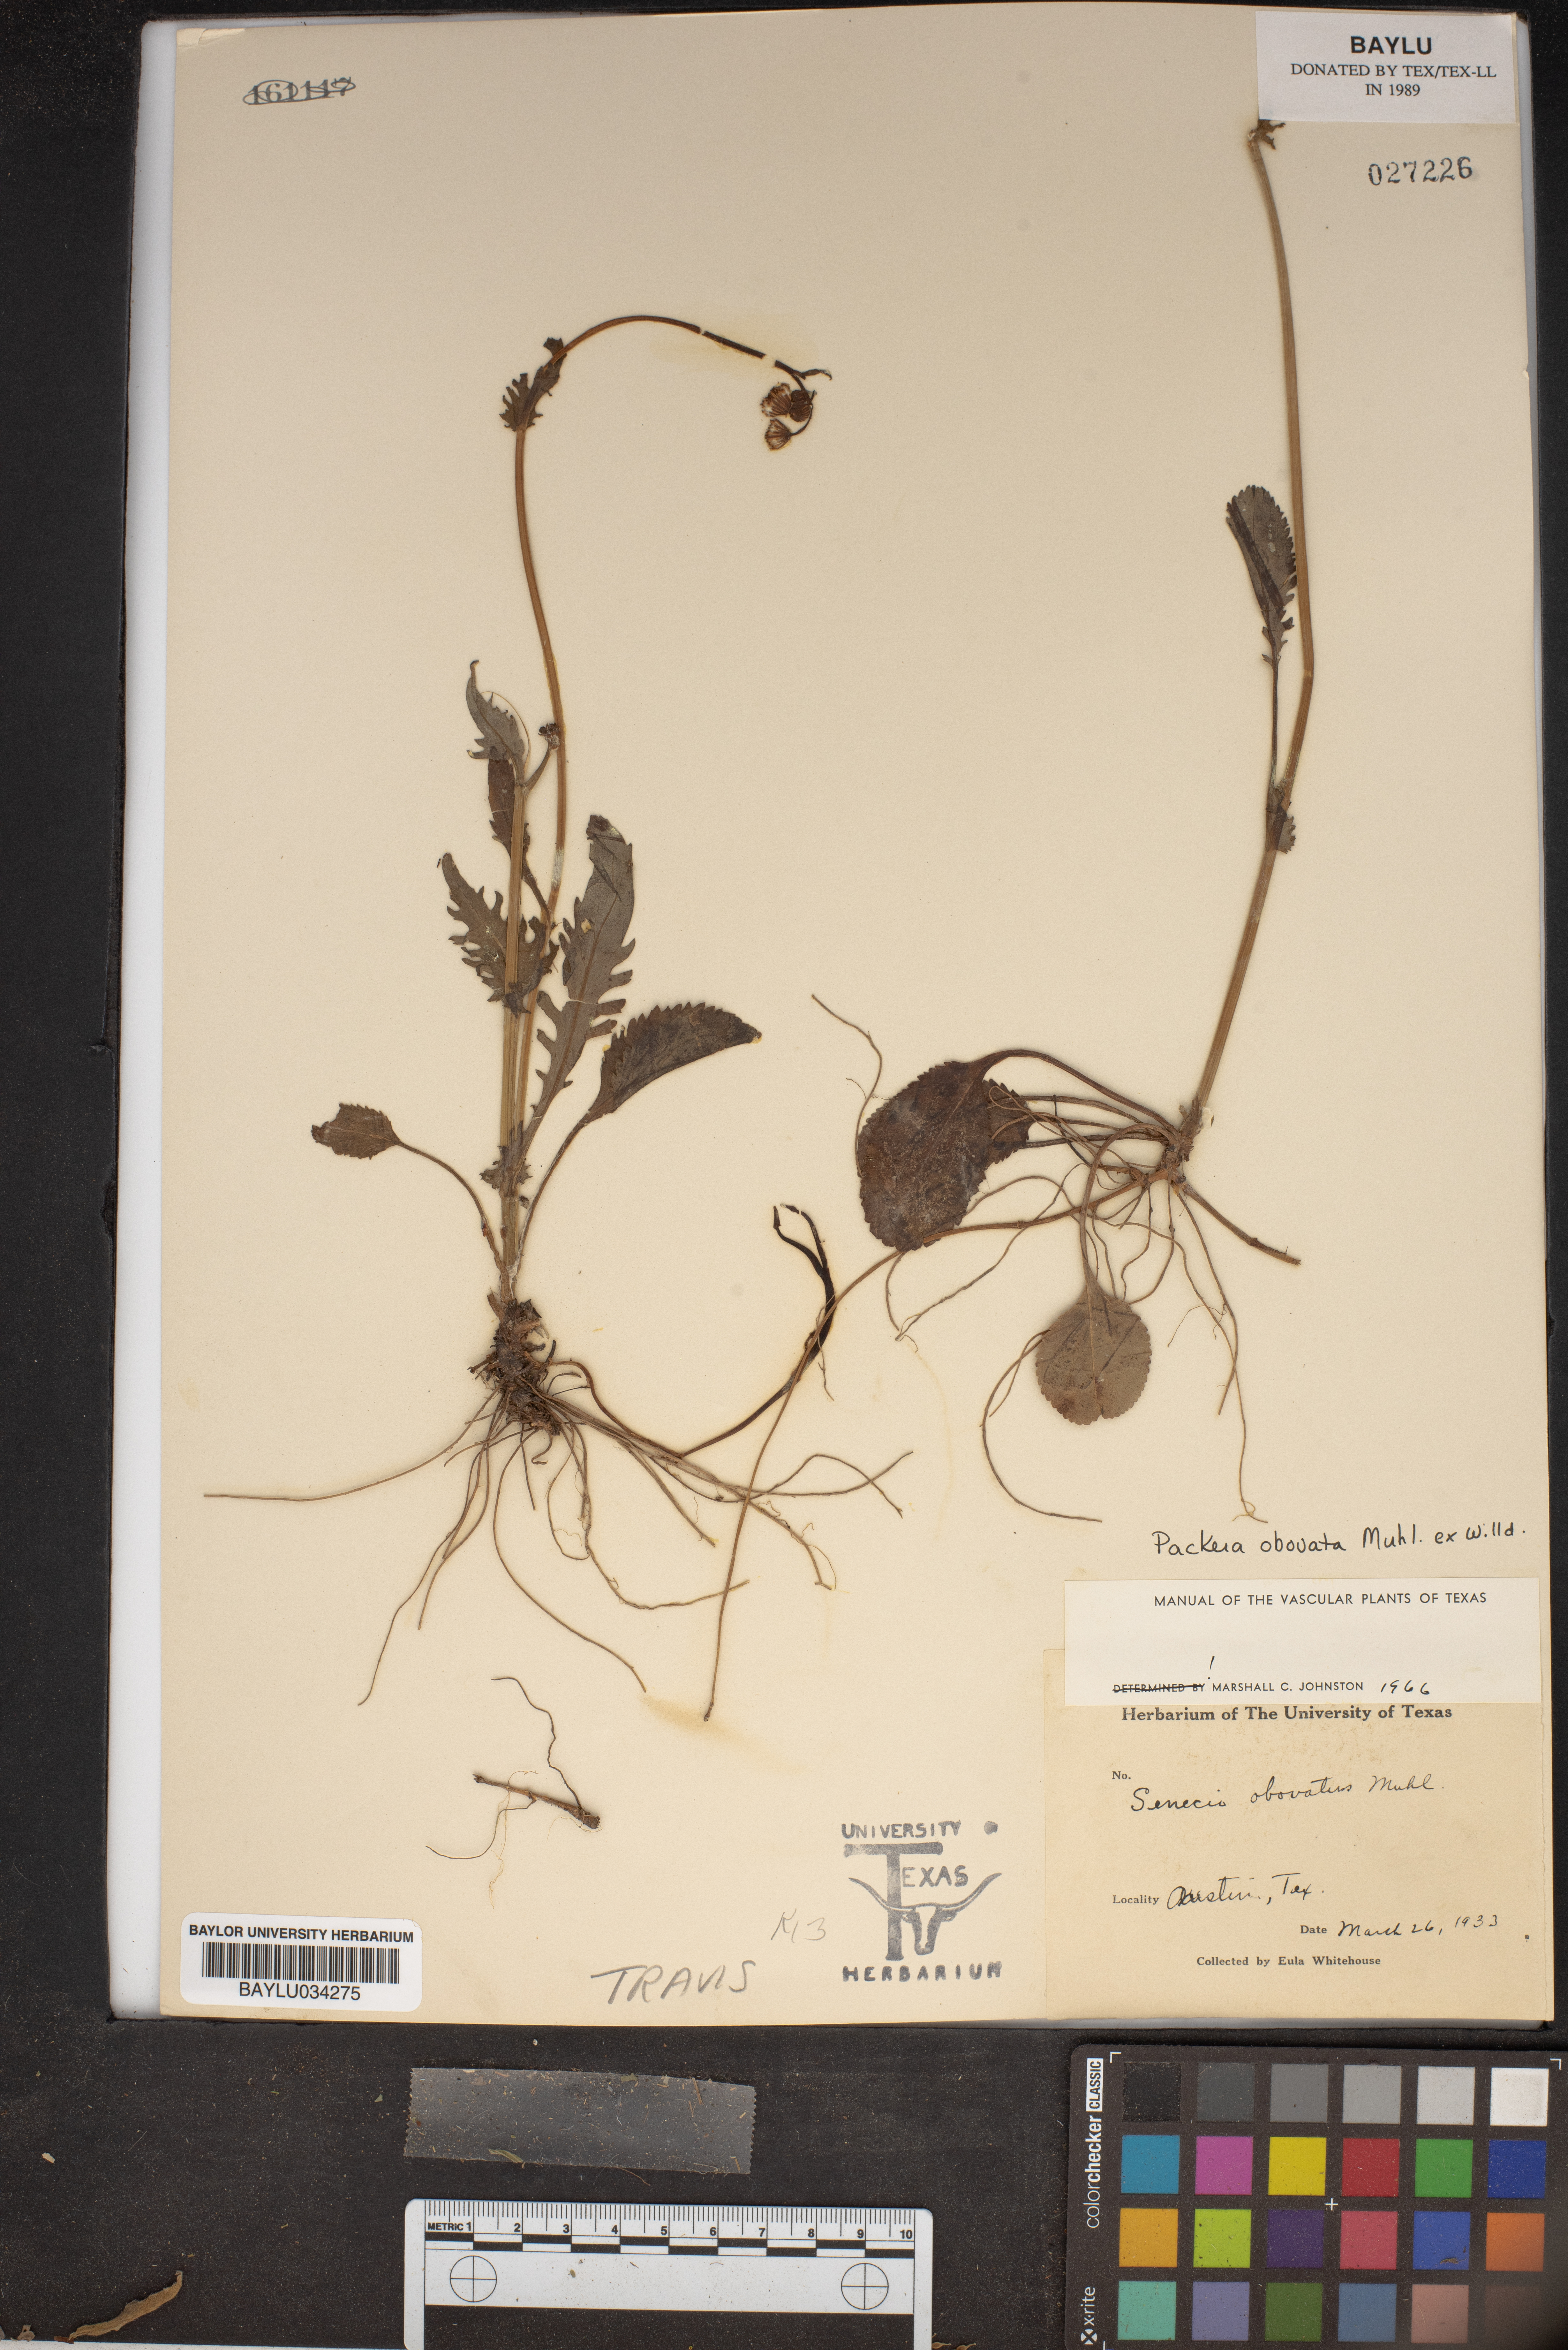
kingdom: Plantae
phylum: Tracheophyta
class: Magnoliopsida
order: Asterales
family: Asteraceae
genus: Senecio
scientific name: Senecio provincialis
